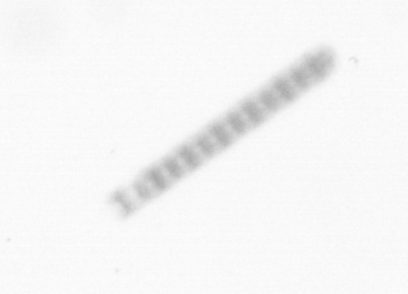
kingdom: Chromista
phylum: Ochrophyta
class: Bacillariophyceae
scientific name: Bacillariophyceae
